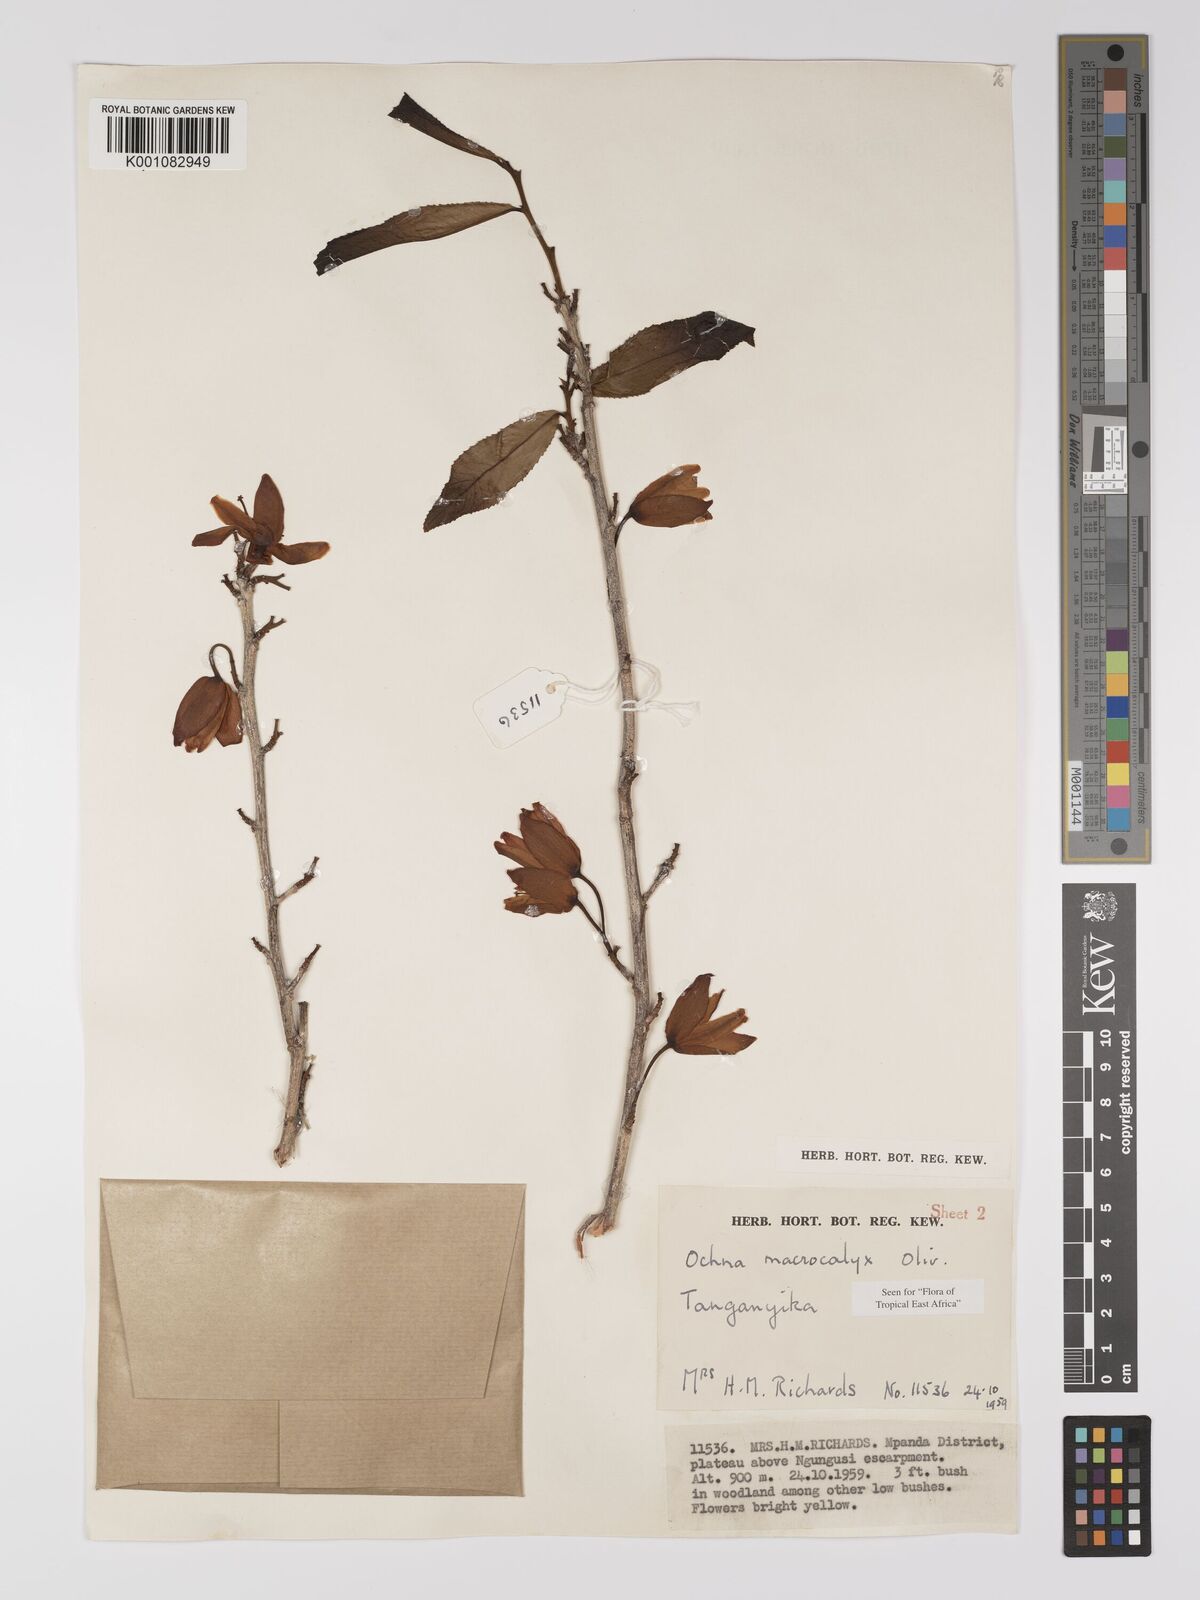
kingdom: Plantae
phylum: Tracheophyta
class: Magnoliopsida
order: Malpighiales
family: Ochnaceae
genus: Ochna
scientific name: Ochna macrocalyx
